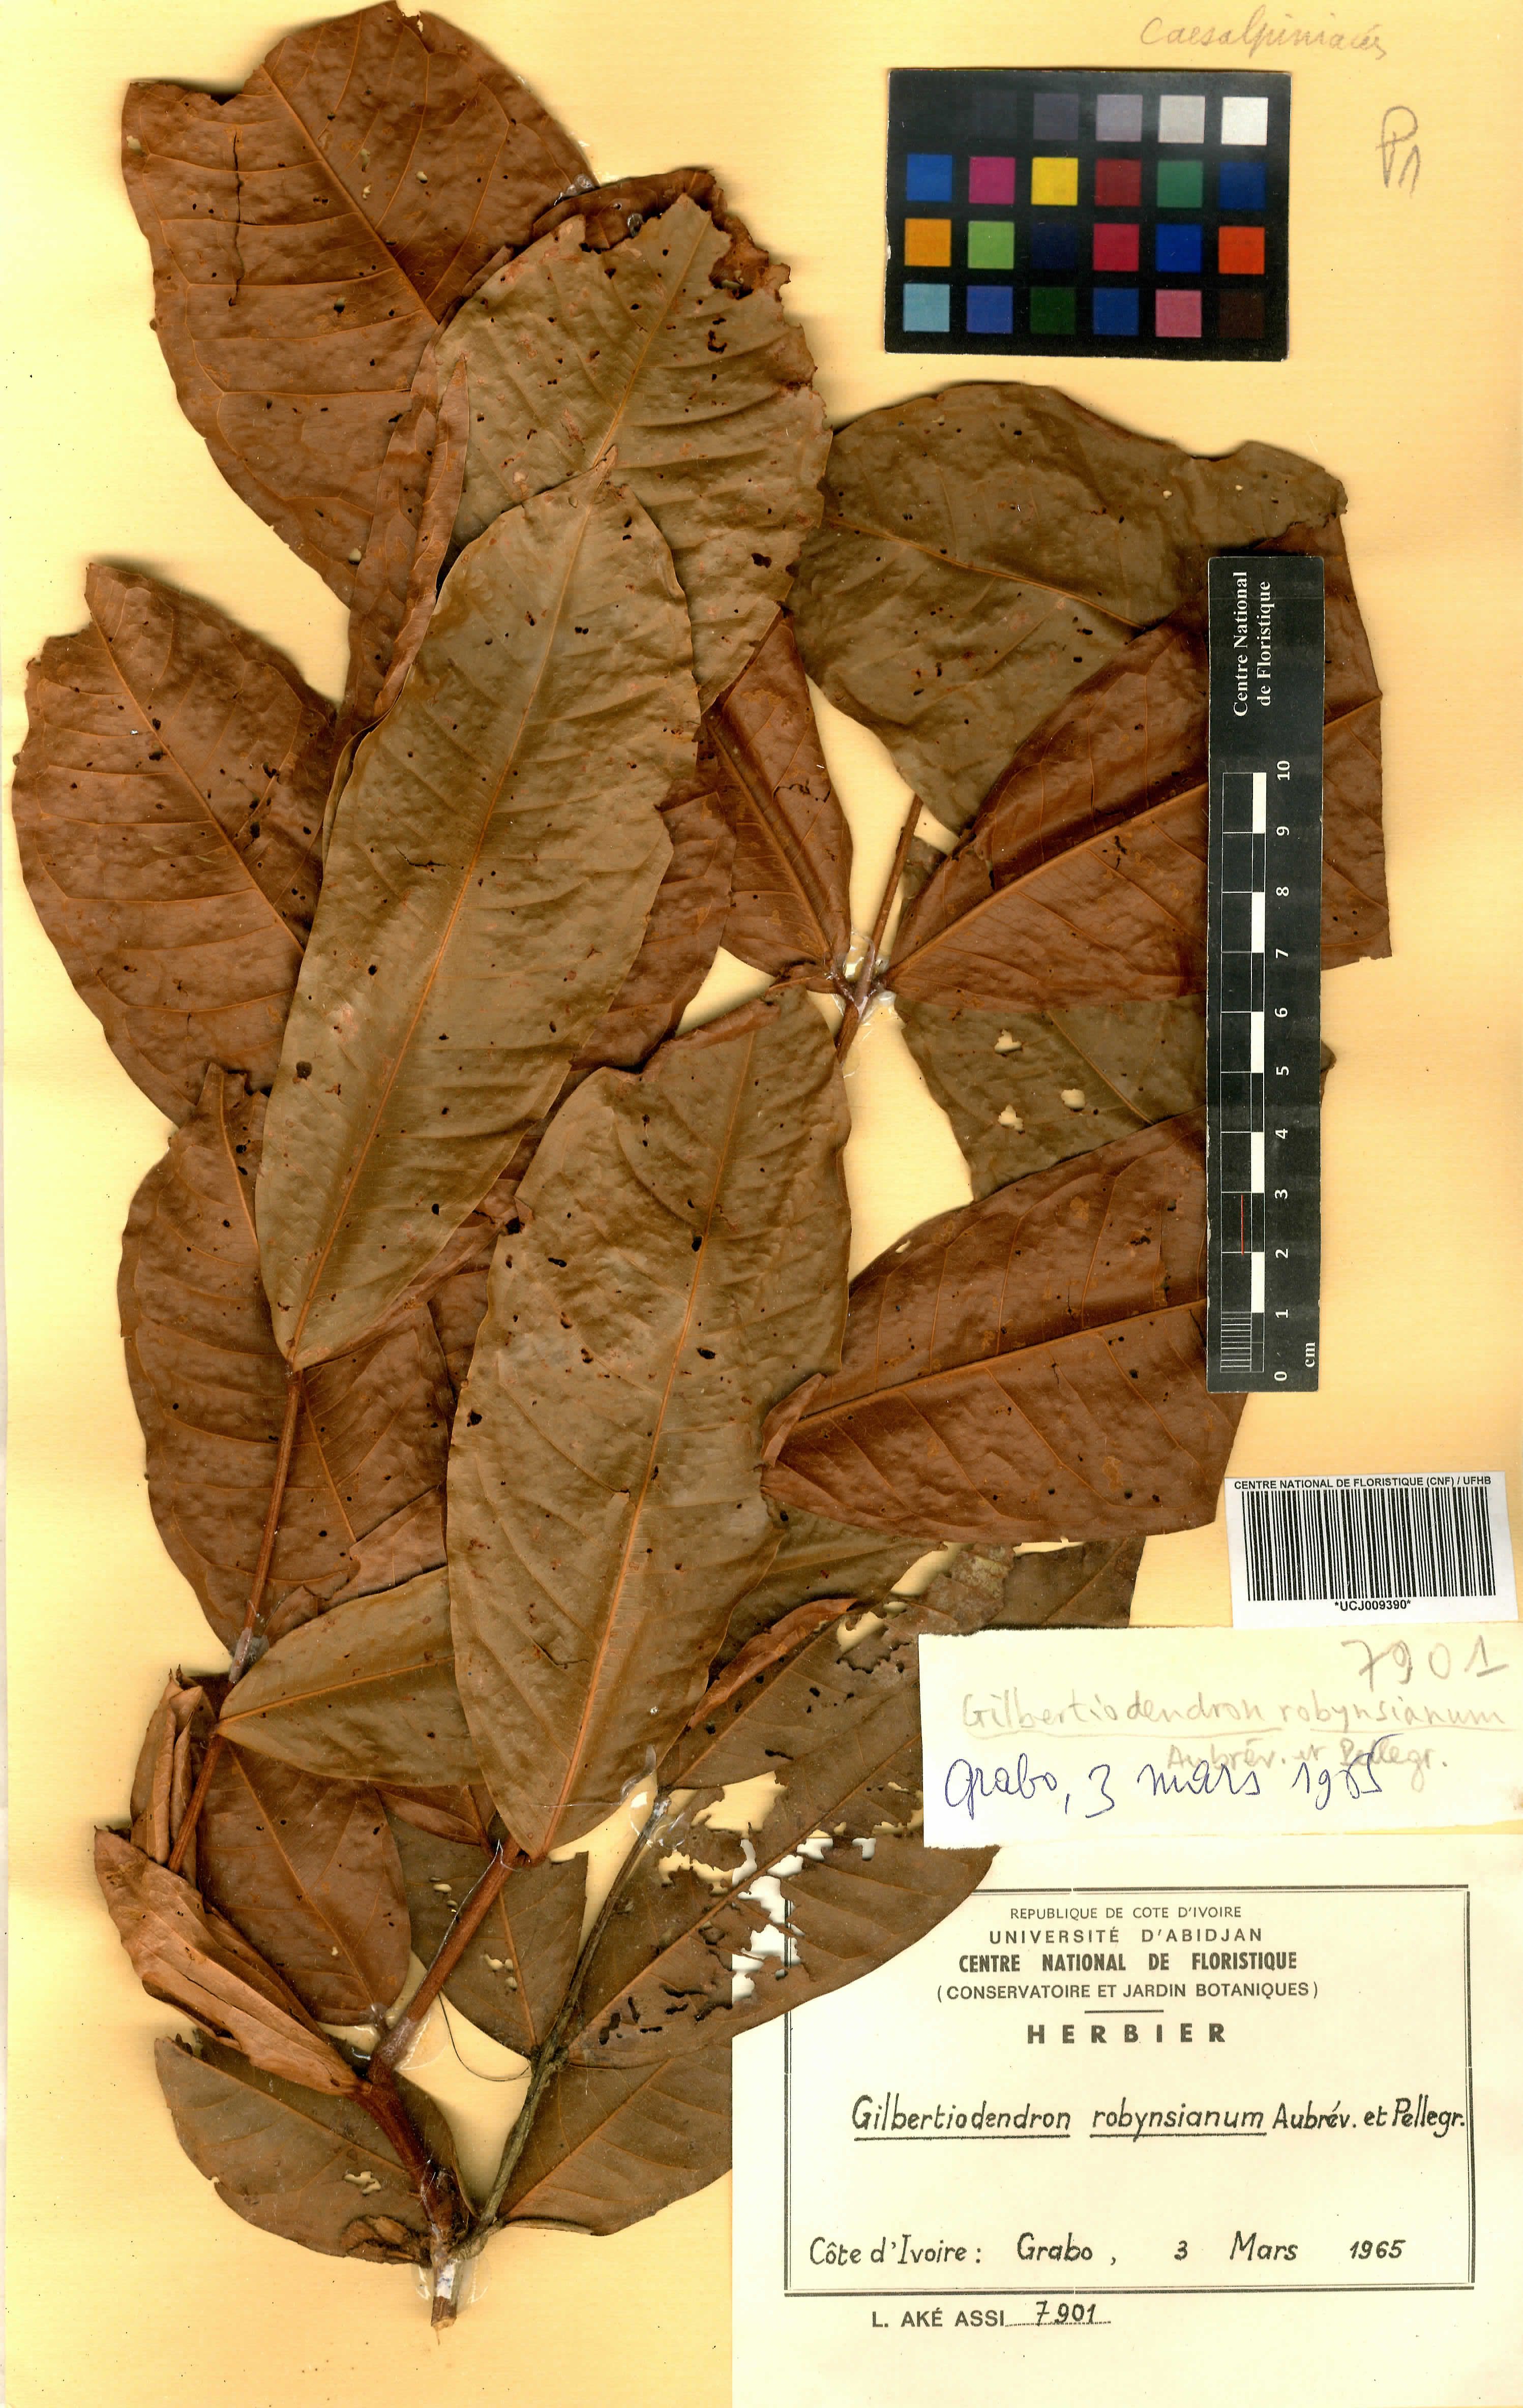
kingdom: Plantae
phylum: Tracheophyta
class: Magnoliopsida
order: Fabales
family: Fabaceae
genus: Gilbertiodendron
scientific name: Gilbertiodendron robynsianum
